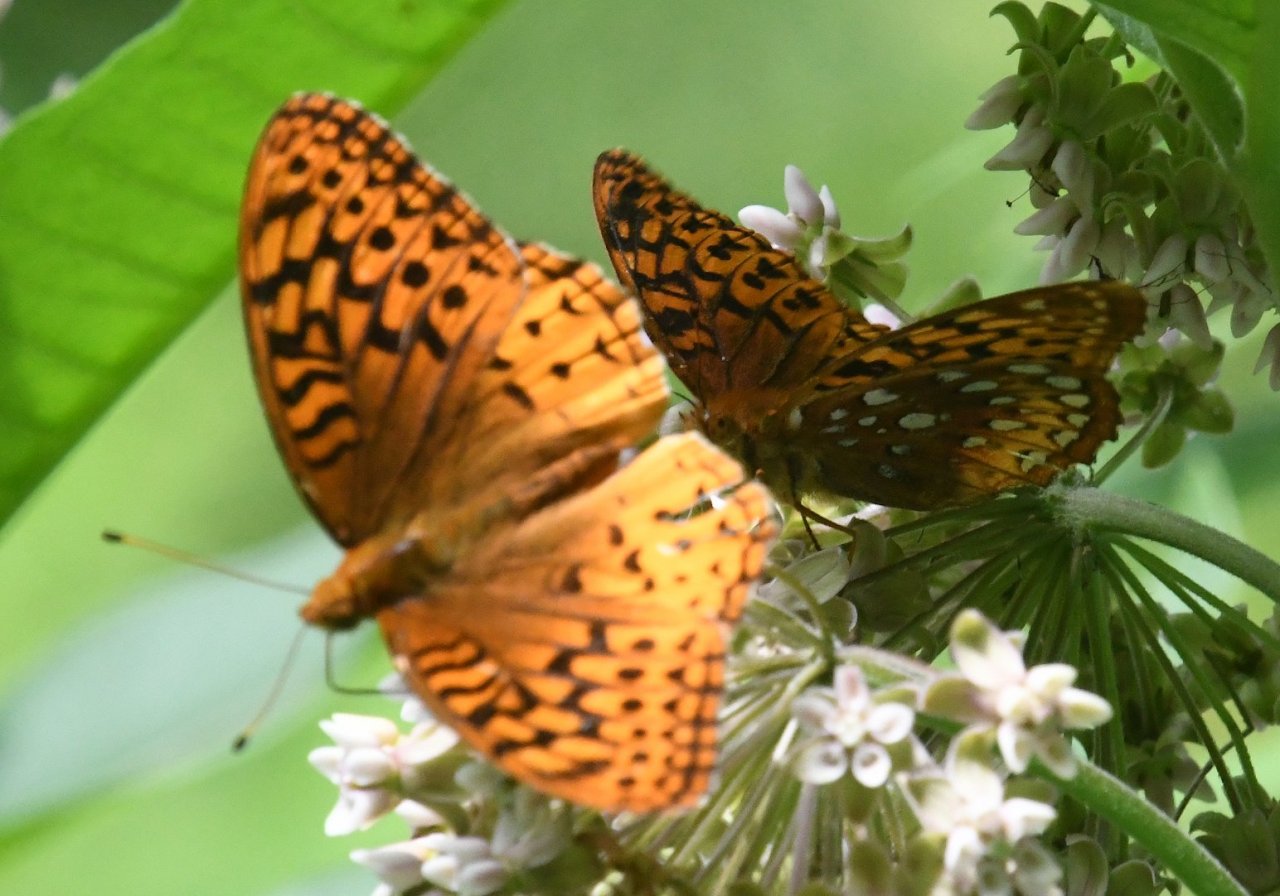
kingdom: Animalia
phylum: Arthropoda
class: Insecta
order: Lepidoptera
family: Nymphalidae
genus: Speyeria
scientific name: Speyeria cybele
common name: Great Spangled Fritillary
